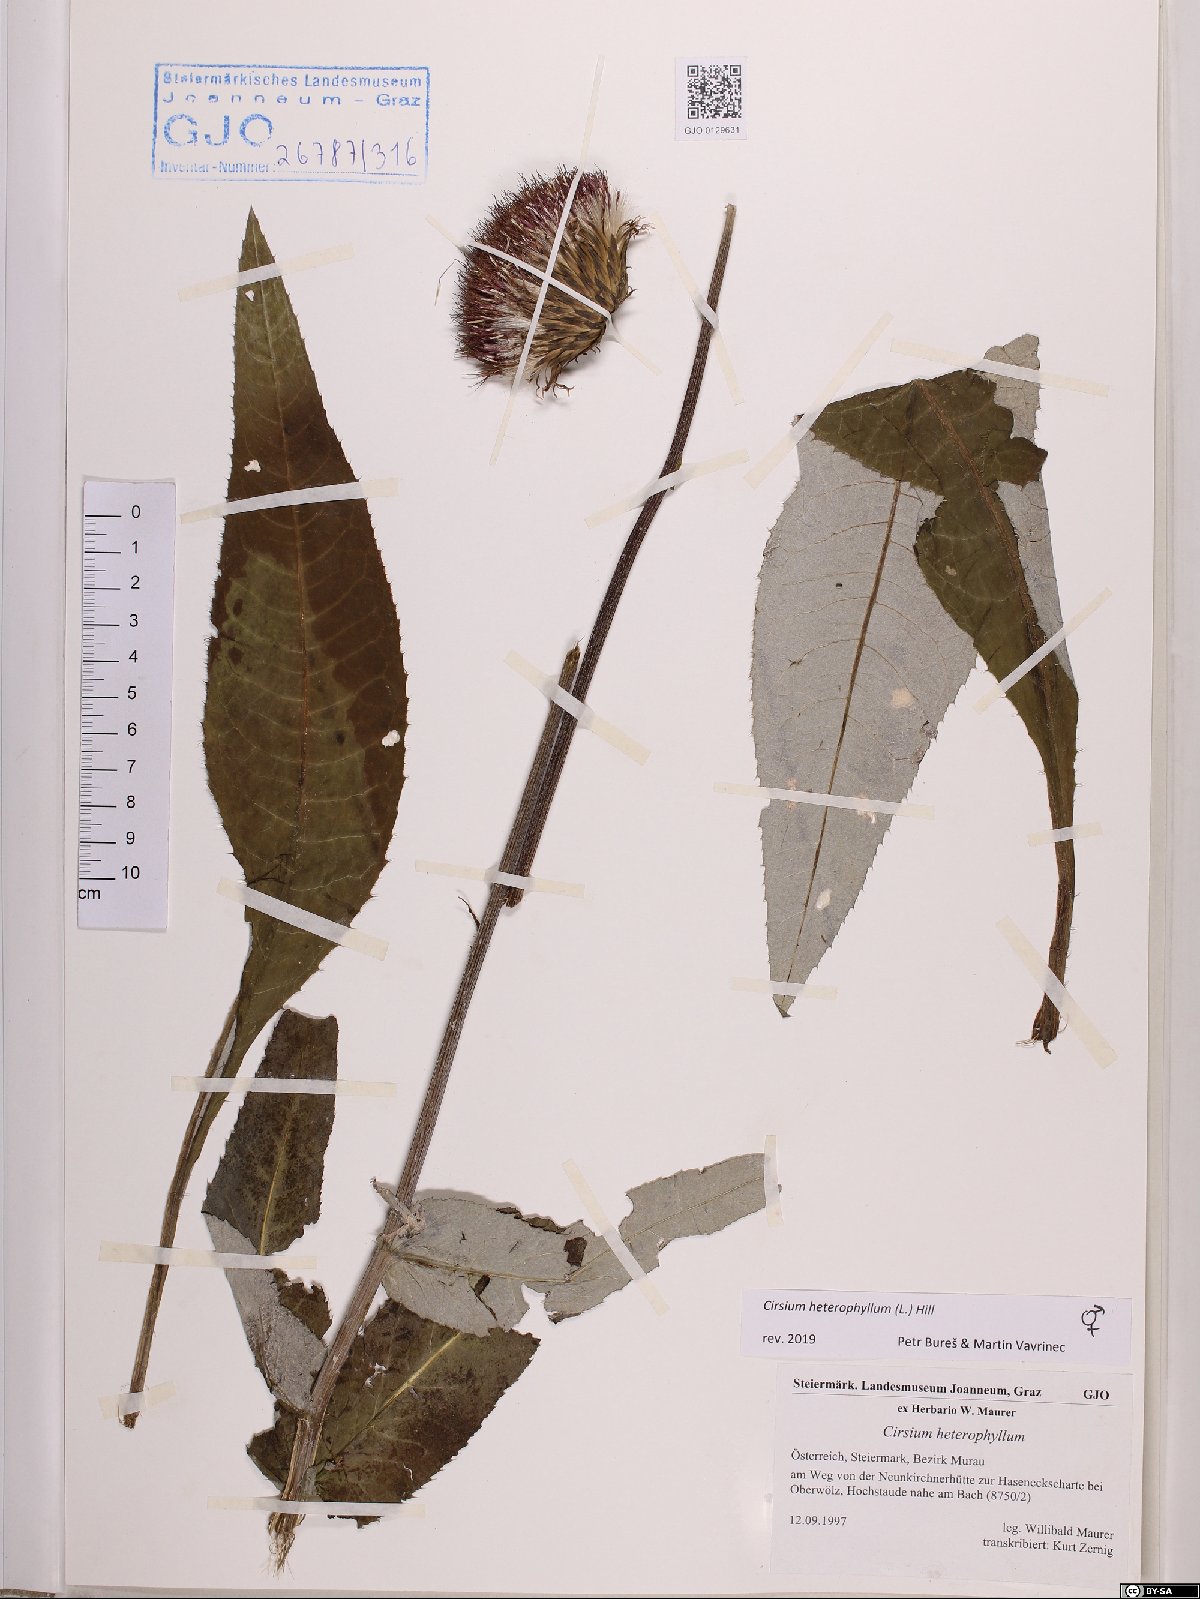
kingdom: Plantae
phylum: Tracheophyta
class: Magnoliopsida
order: Asterales
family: Asteraceae
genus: Cirsium
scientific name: Cirsium heterophyllum
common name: Melancholy thistle
